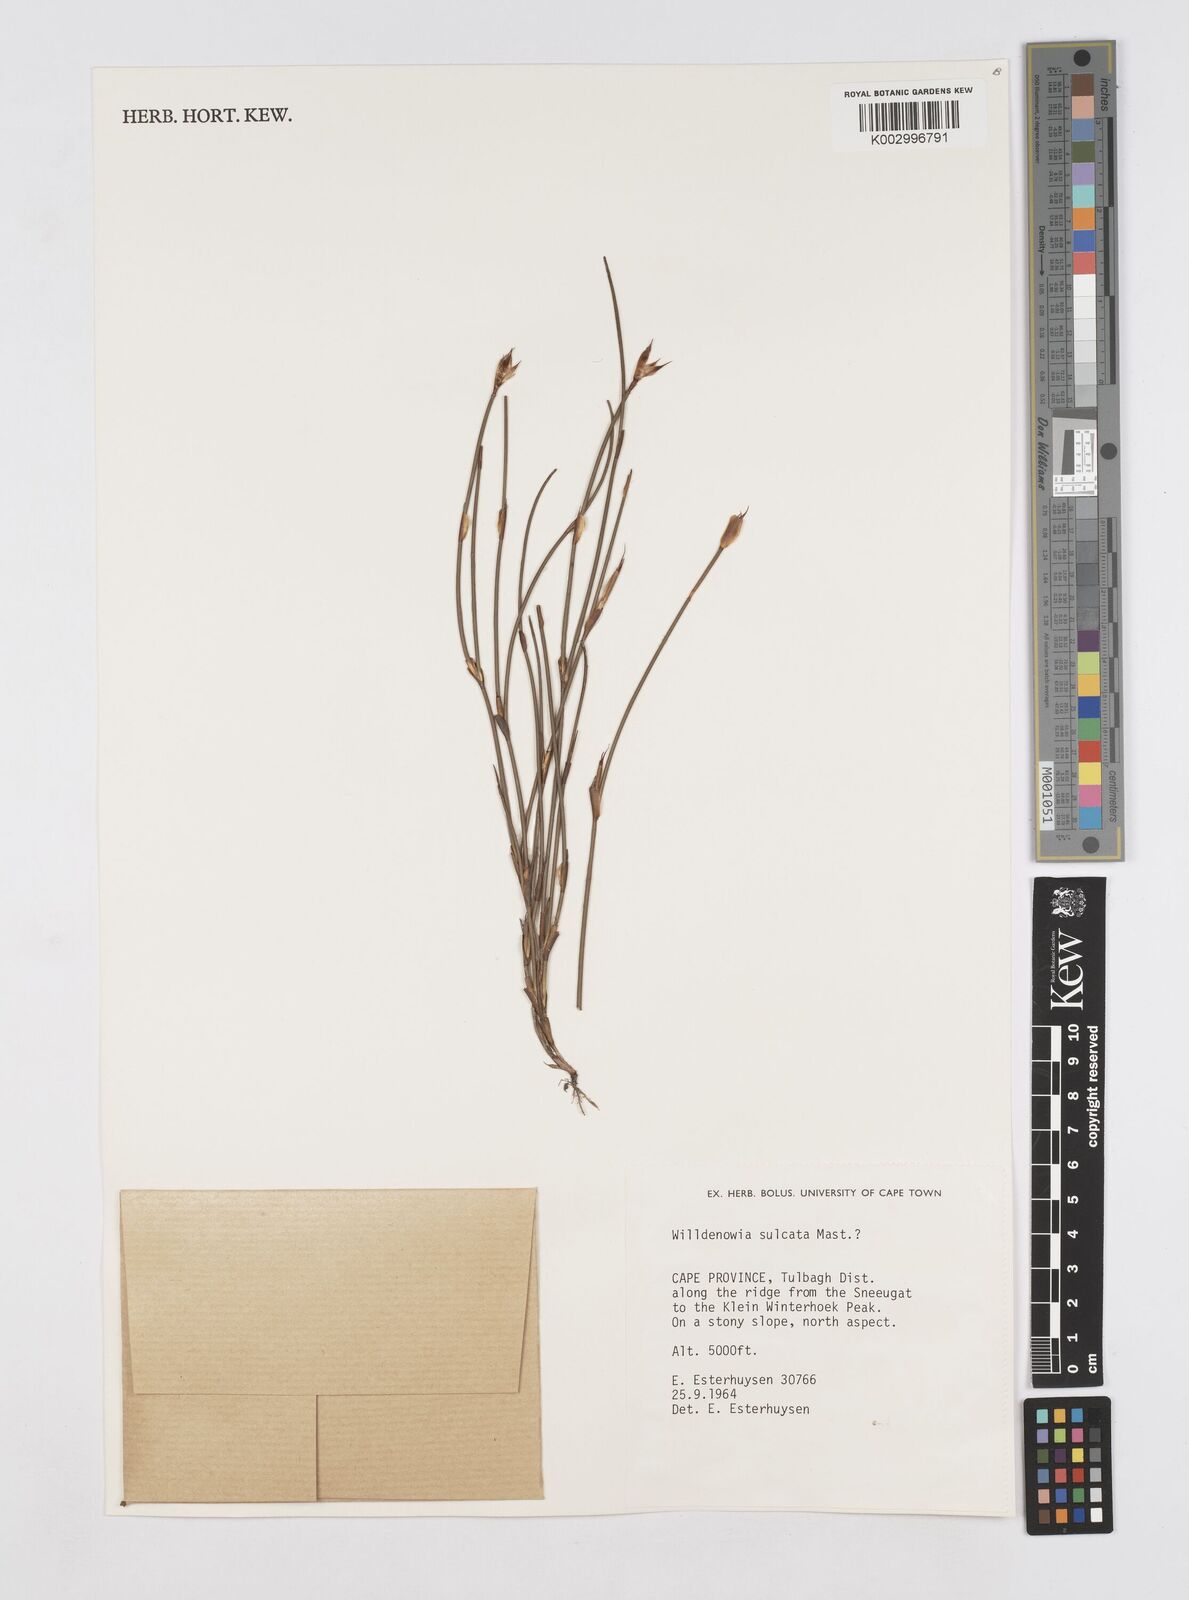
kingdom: Plantae
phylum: Tracheophyta
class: Liliopsida
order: Poales
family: Restionaceae
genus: Willdenowia
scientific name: Willdenowia sulcata
